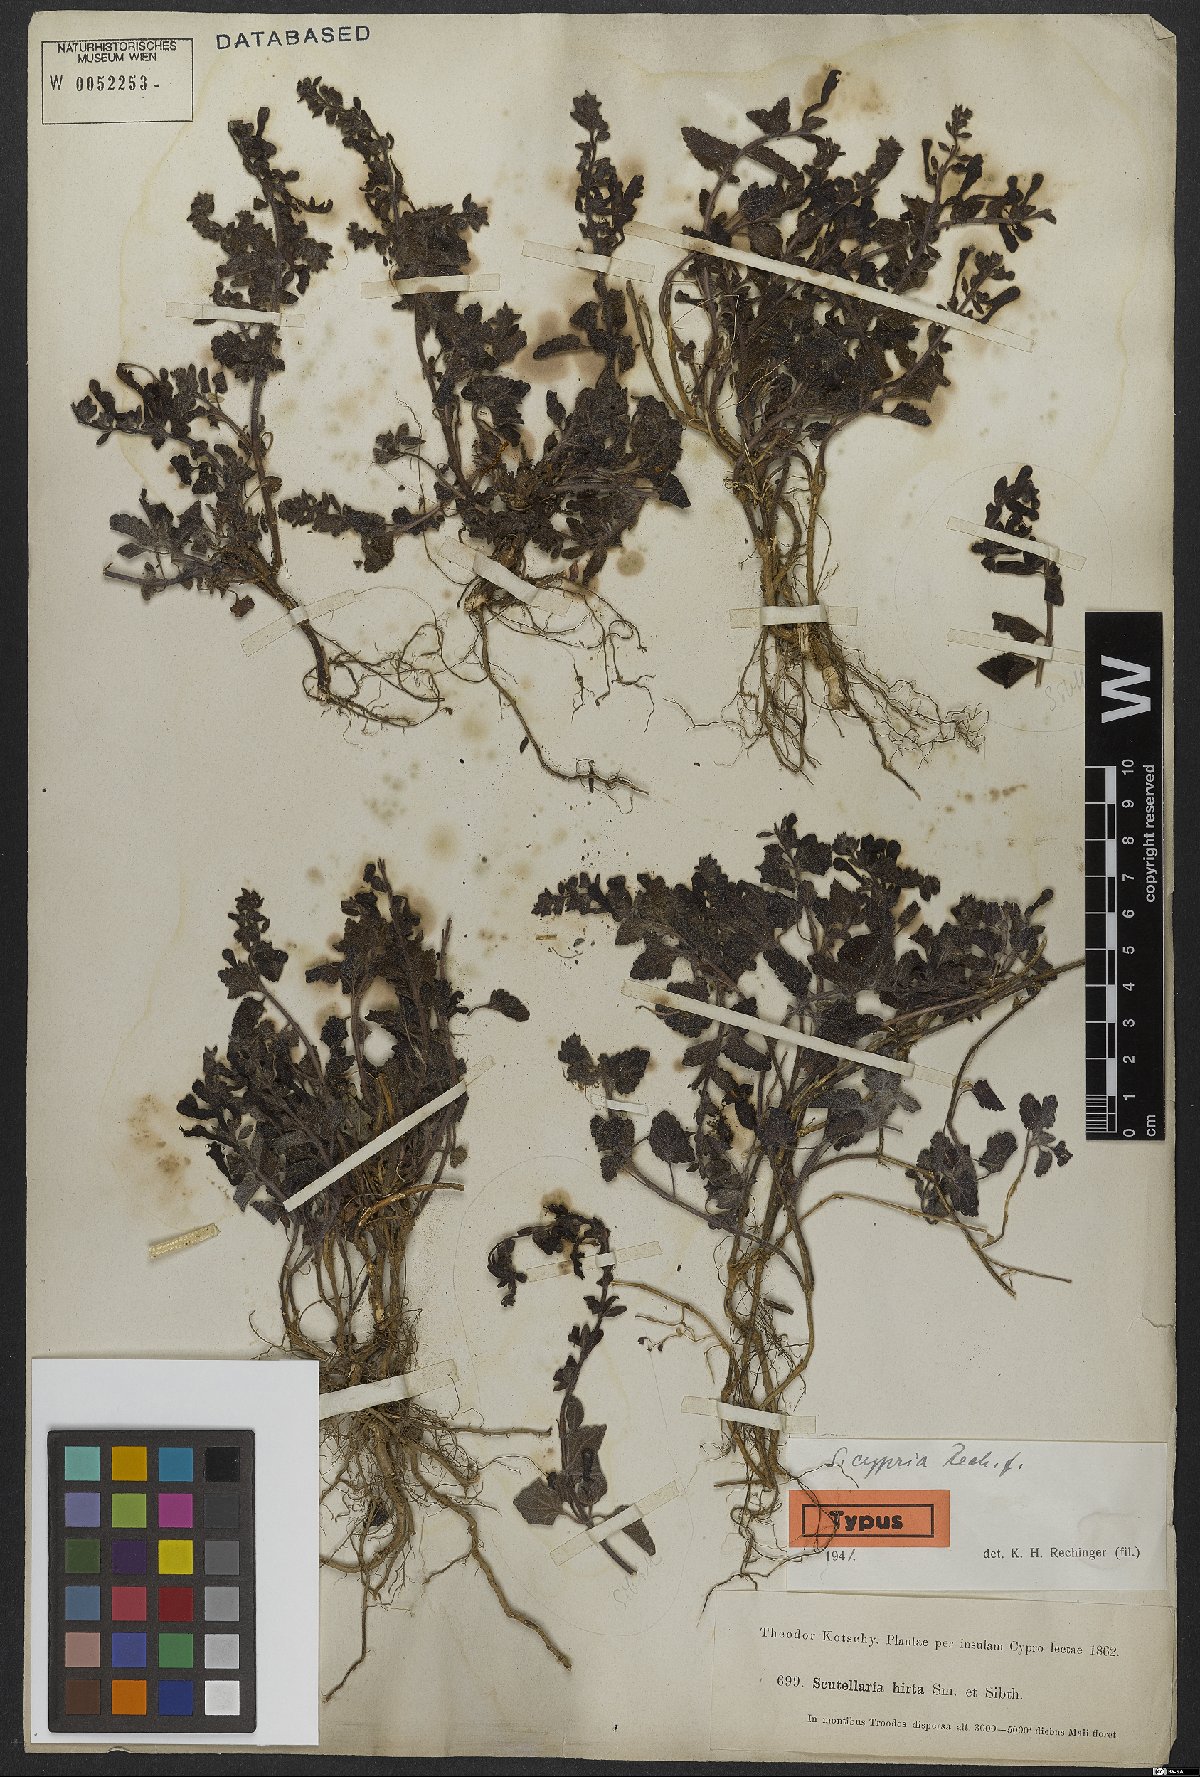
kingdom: Plantae
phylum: Tracheophyta
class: Magnoliopsida
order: Lamiales
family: Lamiaceae
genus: Scutellaria
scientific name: Scutellaria cypria
